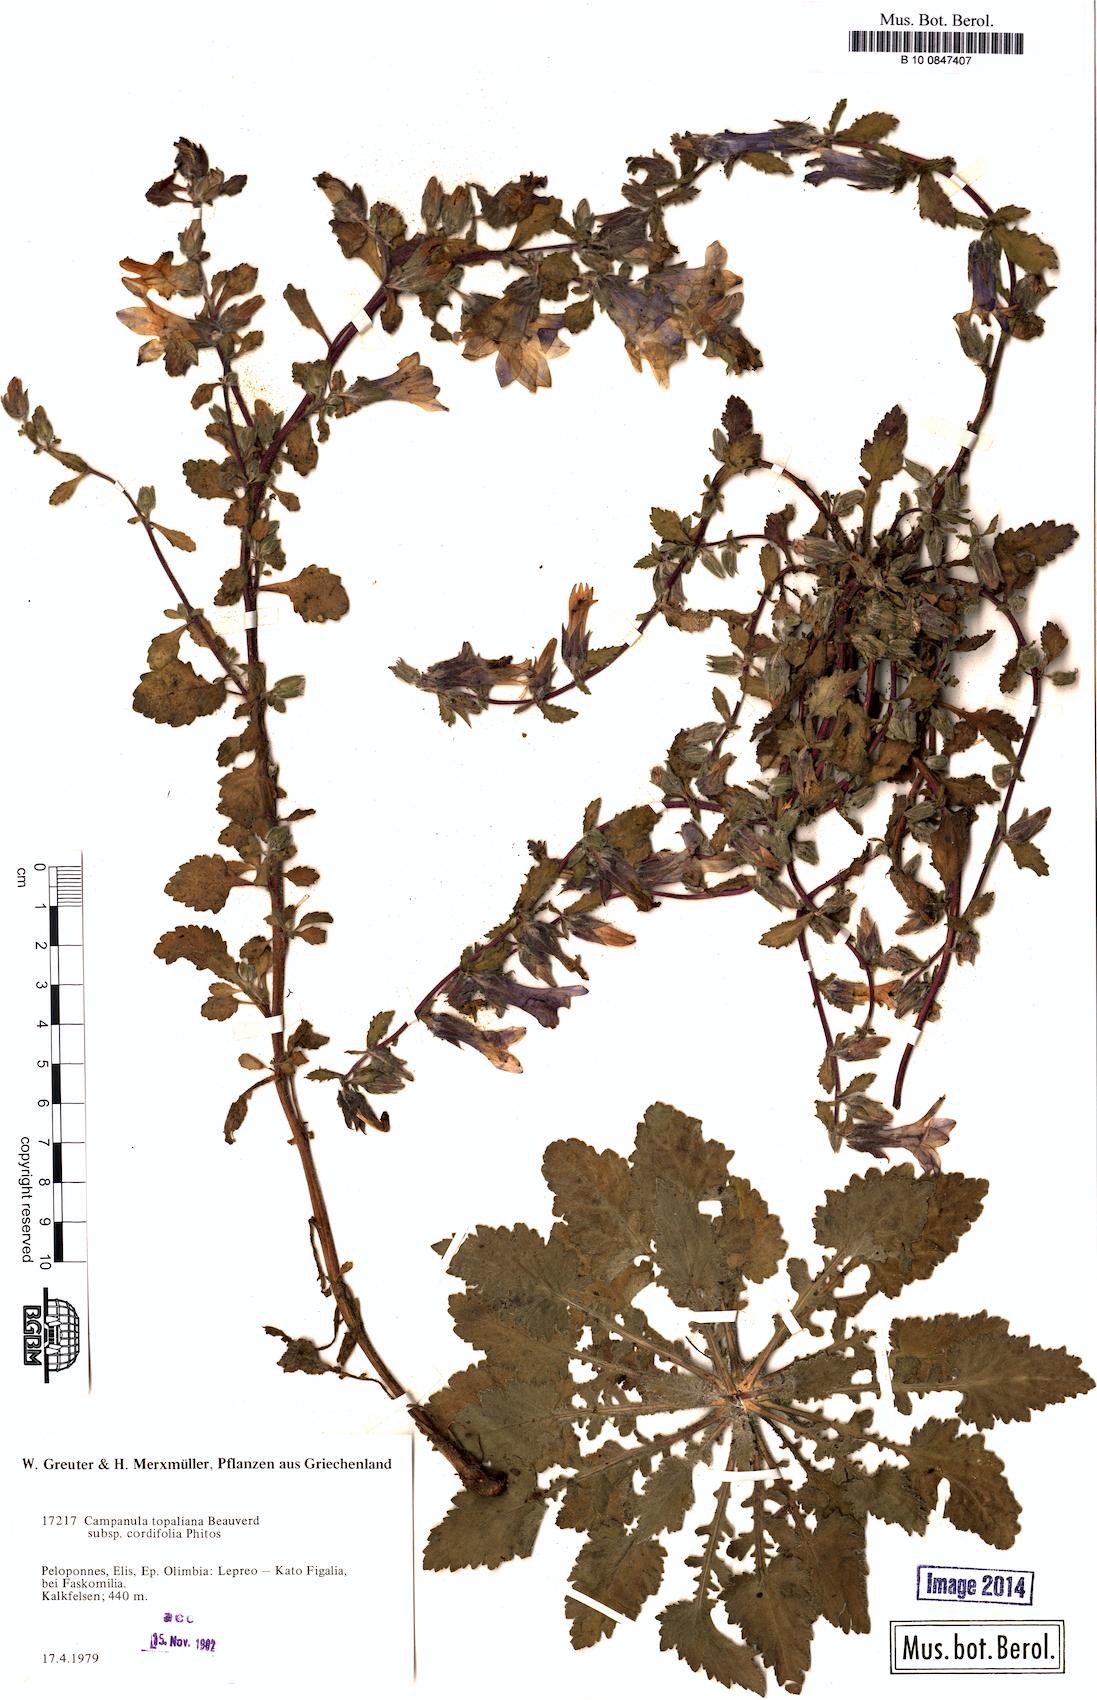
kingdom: Plantae
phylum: Tracheophyta
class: Magnoliopsida
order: Asterales
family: Campanulaceae
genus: Campanula
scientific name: Campanula topaliana
